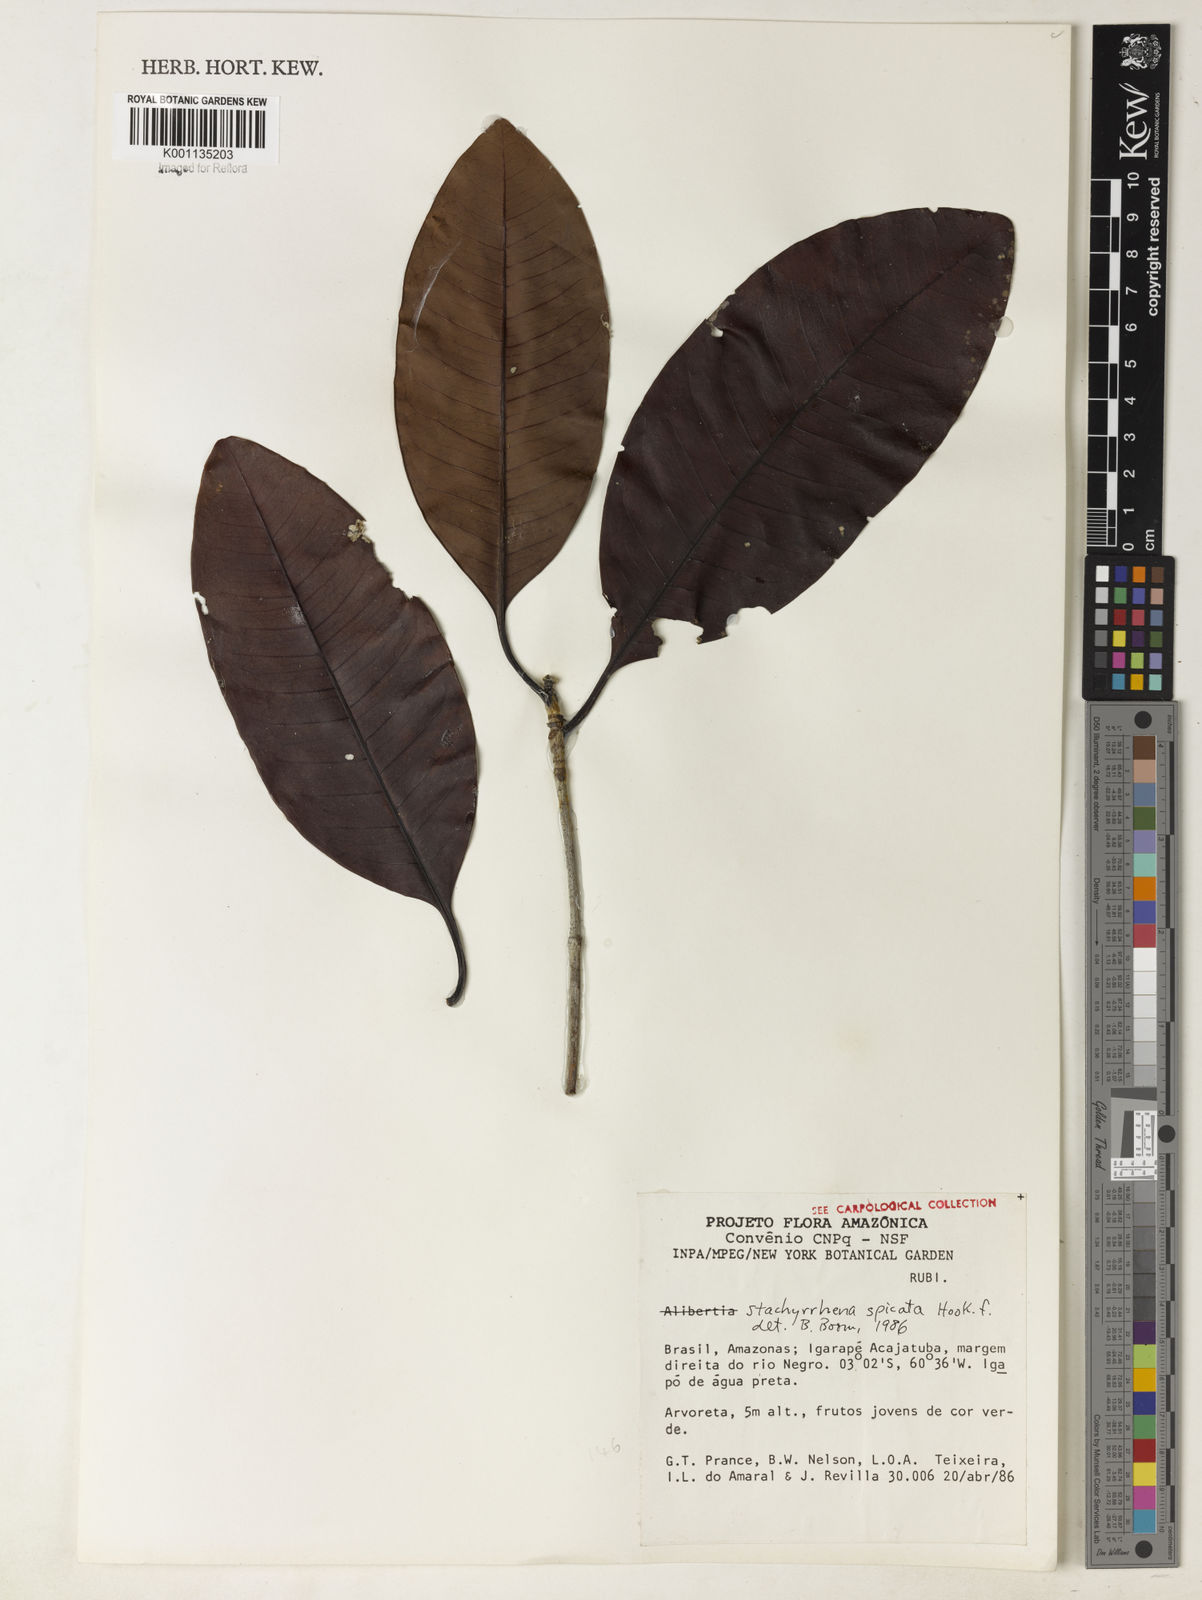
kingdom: Plantae
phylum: Tracheophyta
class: Magnoliopsida
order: Gentianales
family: Rubiaceae
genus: Stachyarrhena
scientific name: Stachyarrhena spicata
